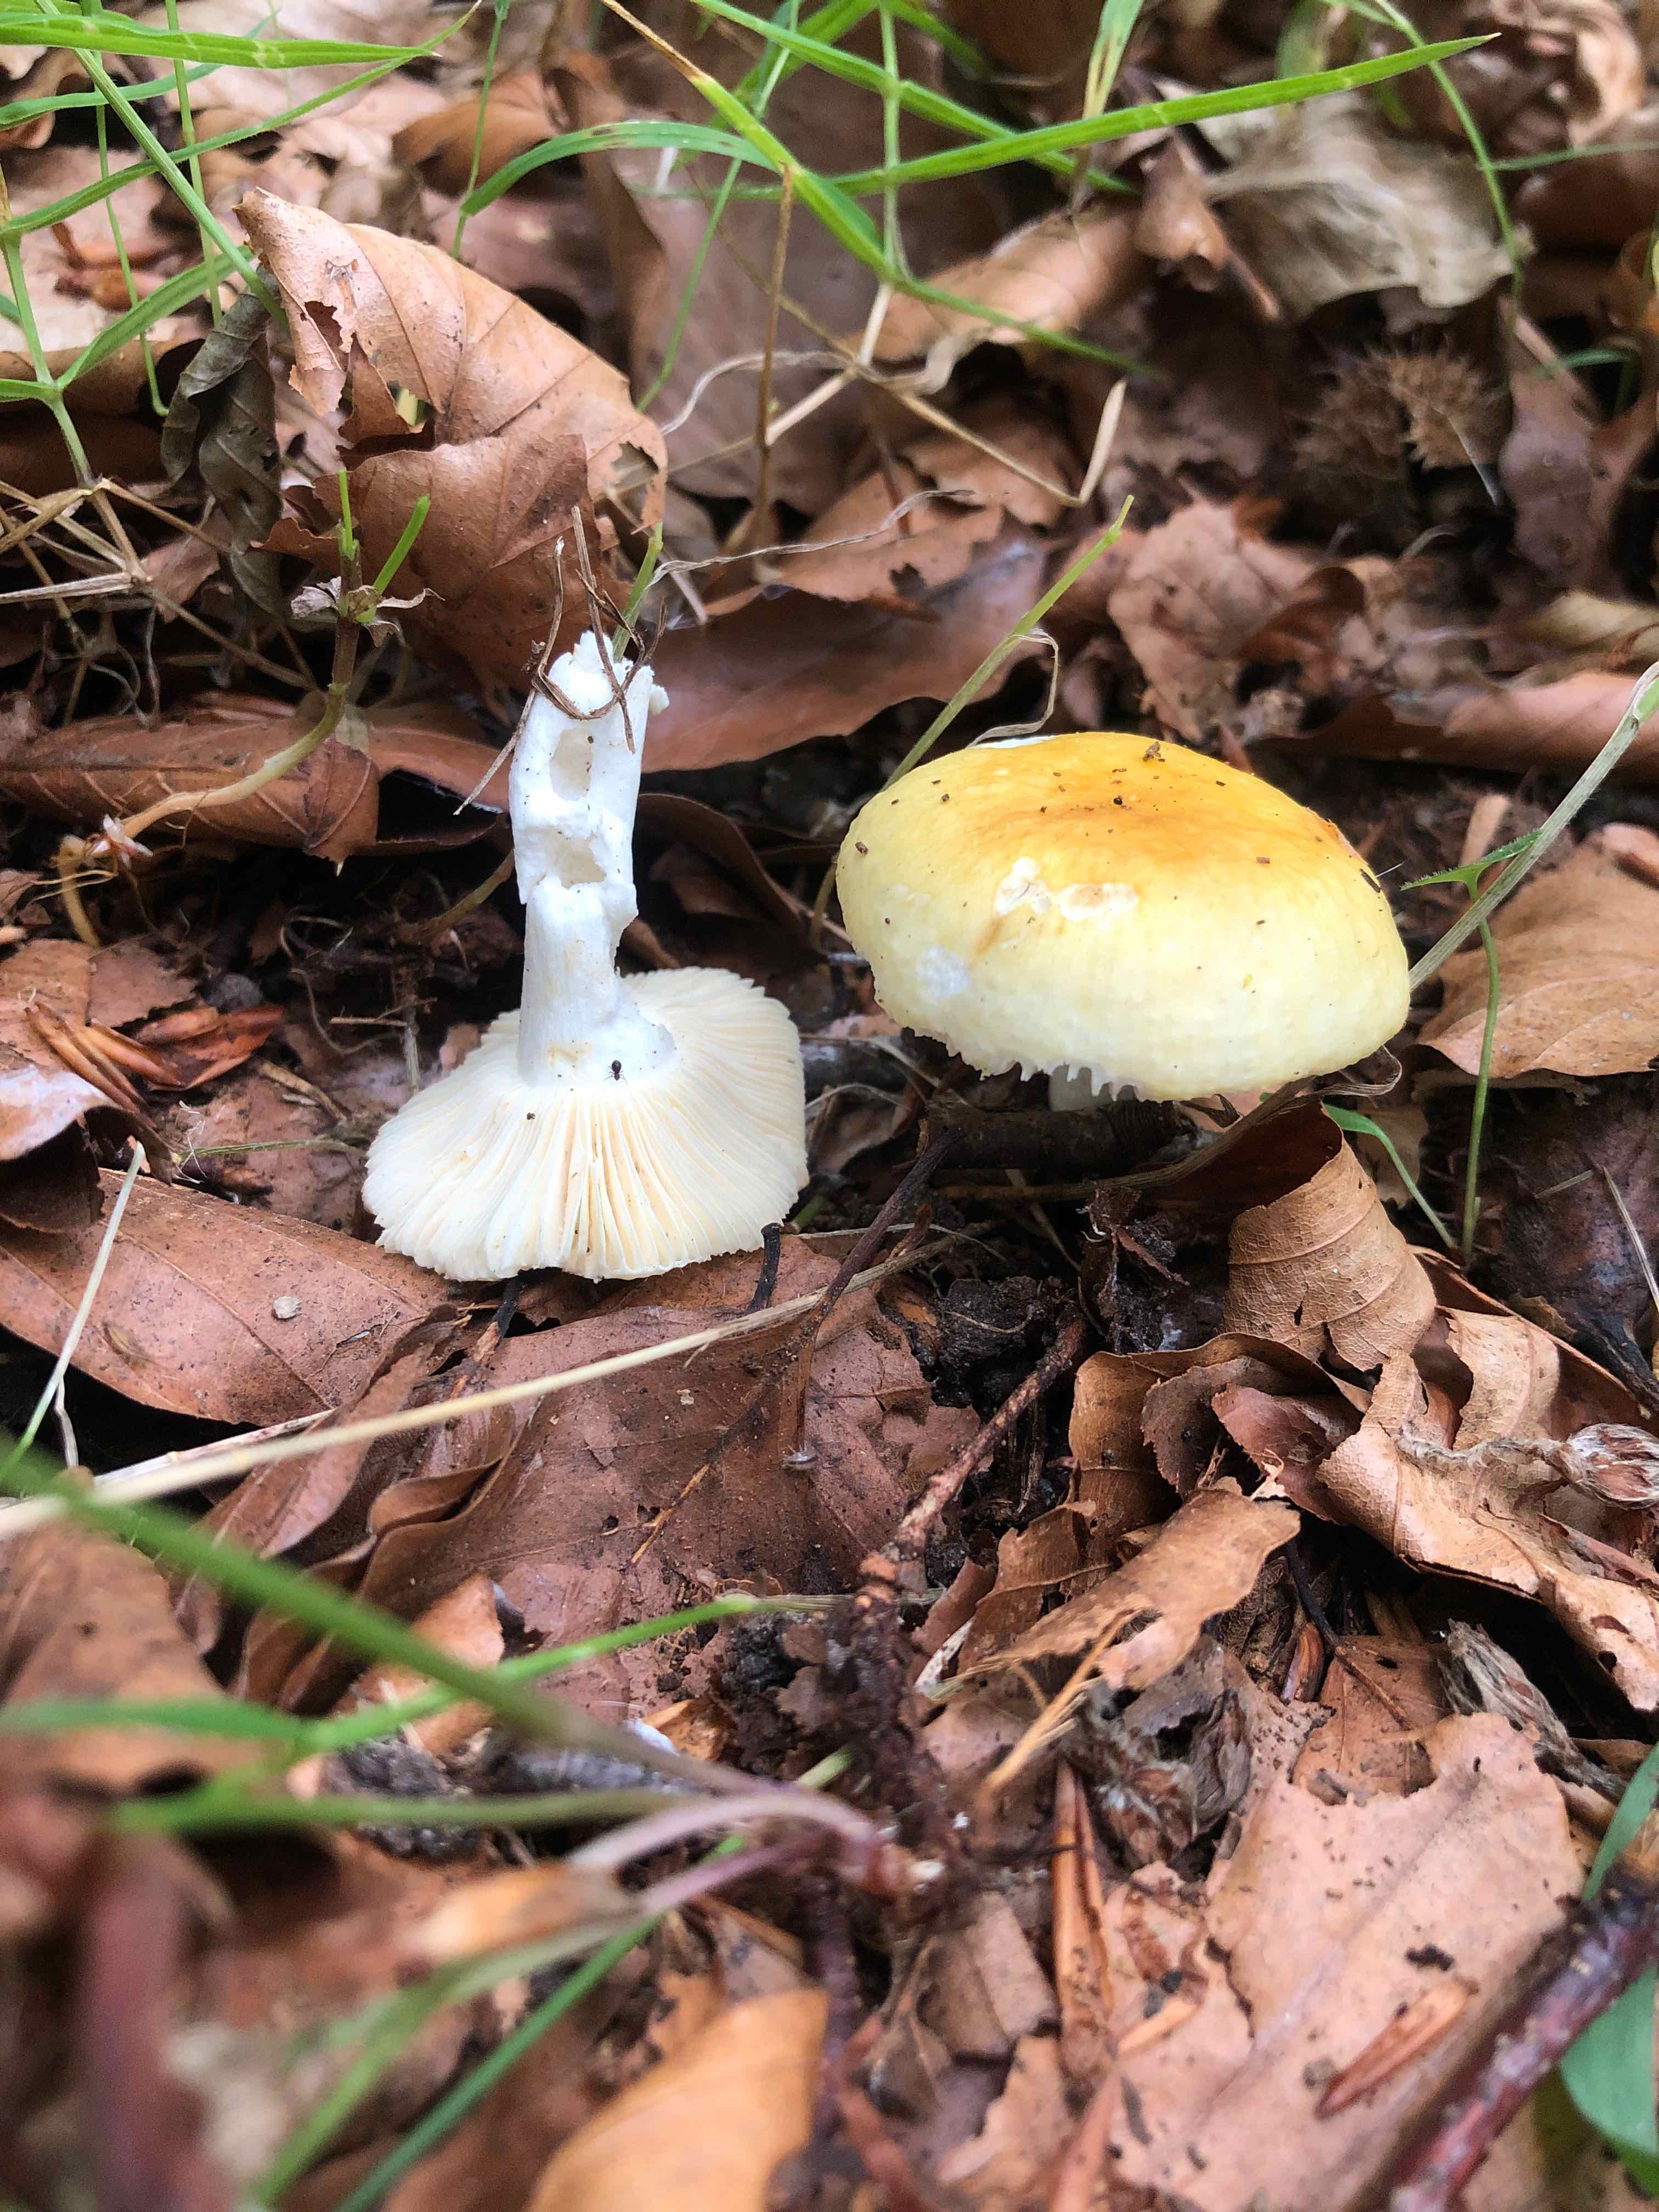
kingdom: Fungi
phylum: Basidiomycota
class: Agaricomycetes
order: Russulales
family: Russulaceae
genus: Russula
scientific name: Russula solaris
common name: sol-skørhat
